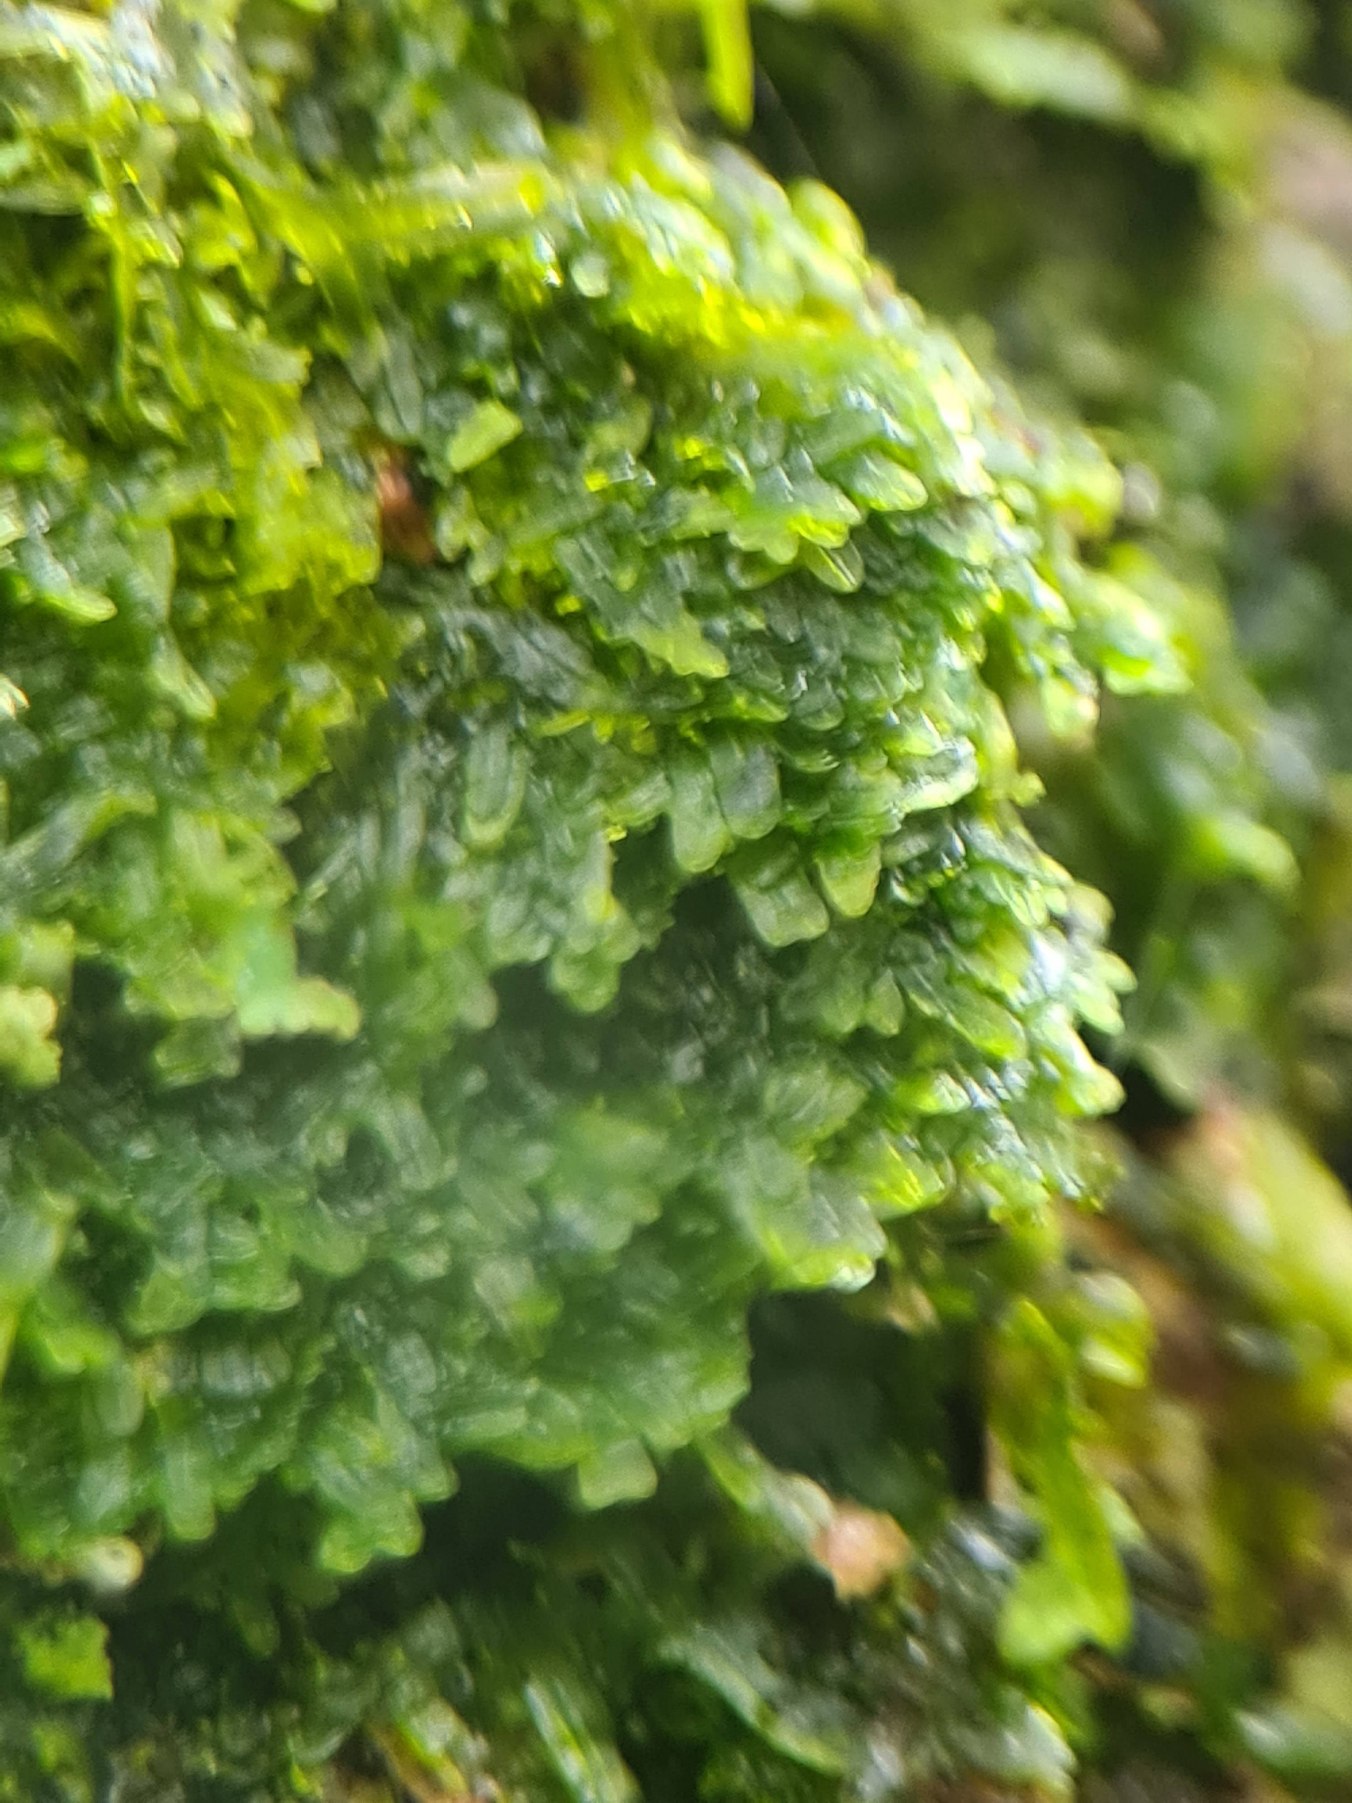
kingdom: Plantae
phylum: Marchantiophyta
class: Jungermanniopsida
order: Metzgeriales
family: Metzgeriaceae
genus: Metzgeria
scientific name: Metzgeria furcata
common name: Almindelig gaffelløv
